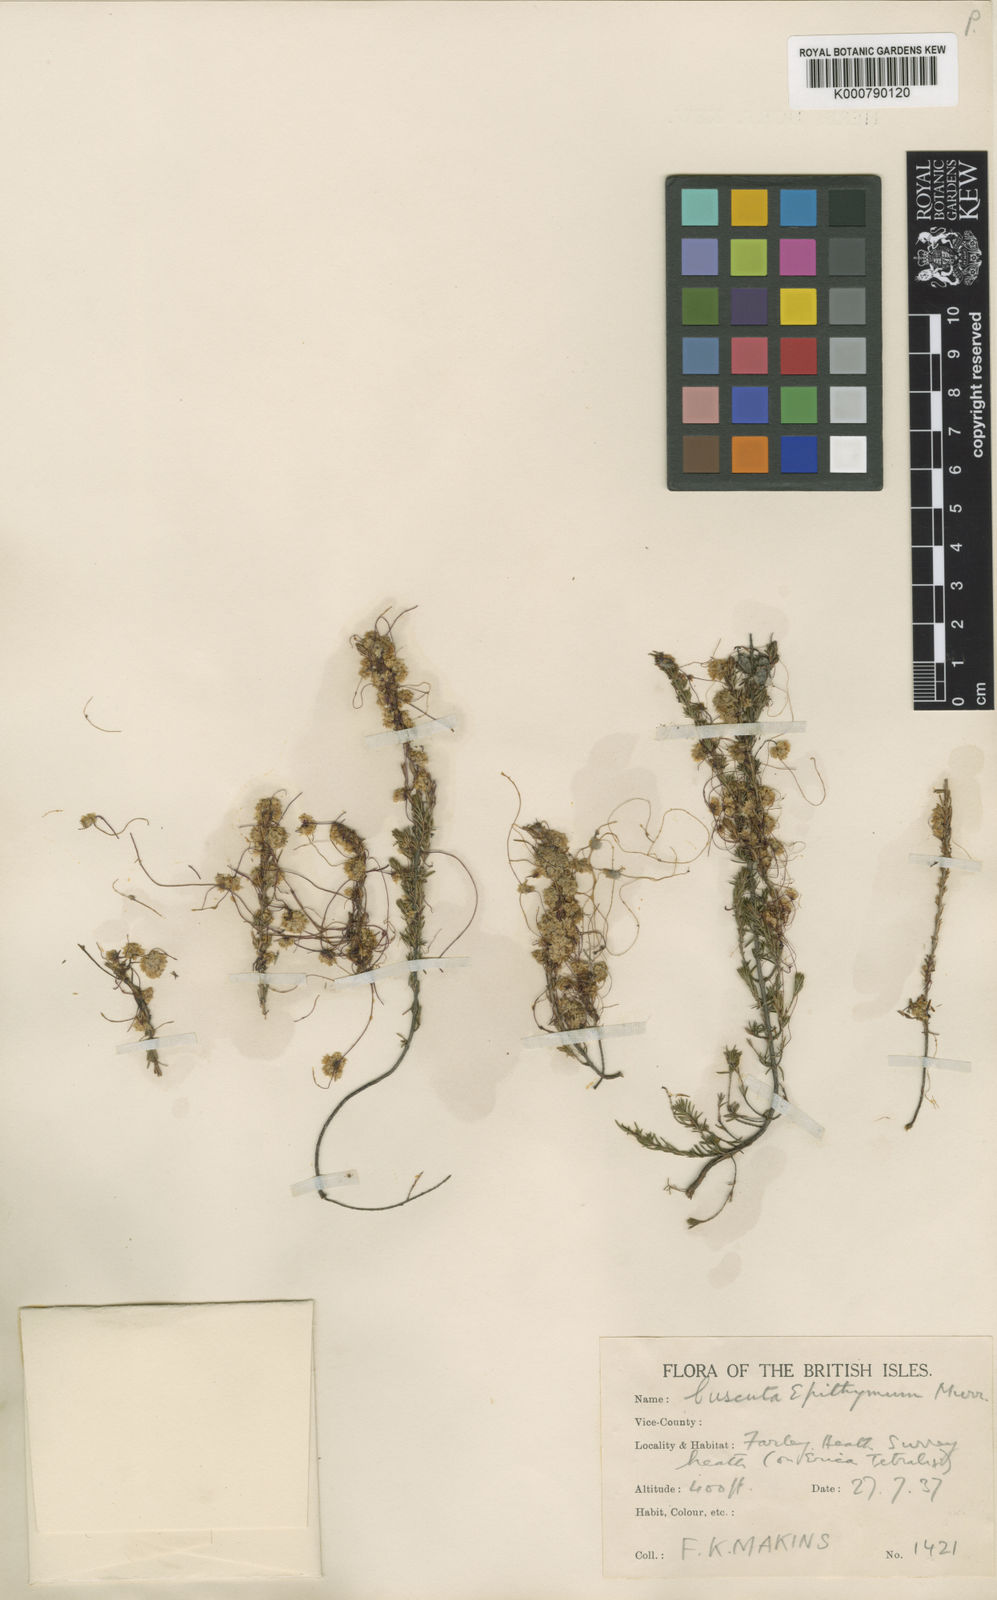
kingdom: Plantae
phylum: Tracheophyta
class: Magnoliopsida
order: Solanales
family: Convolvulaceae
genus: Cuscuta
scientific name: Cuscuta epithymum
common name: Clover dodder
